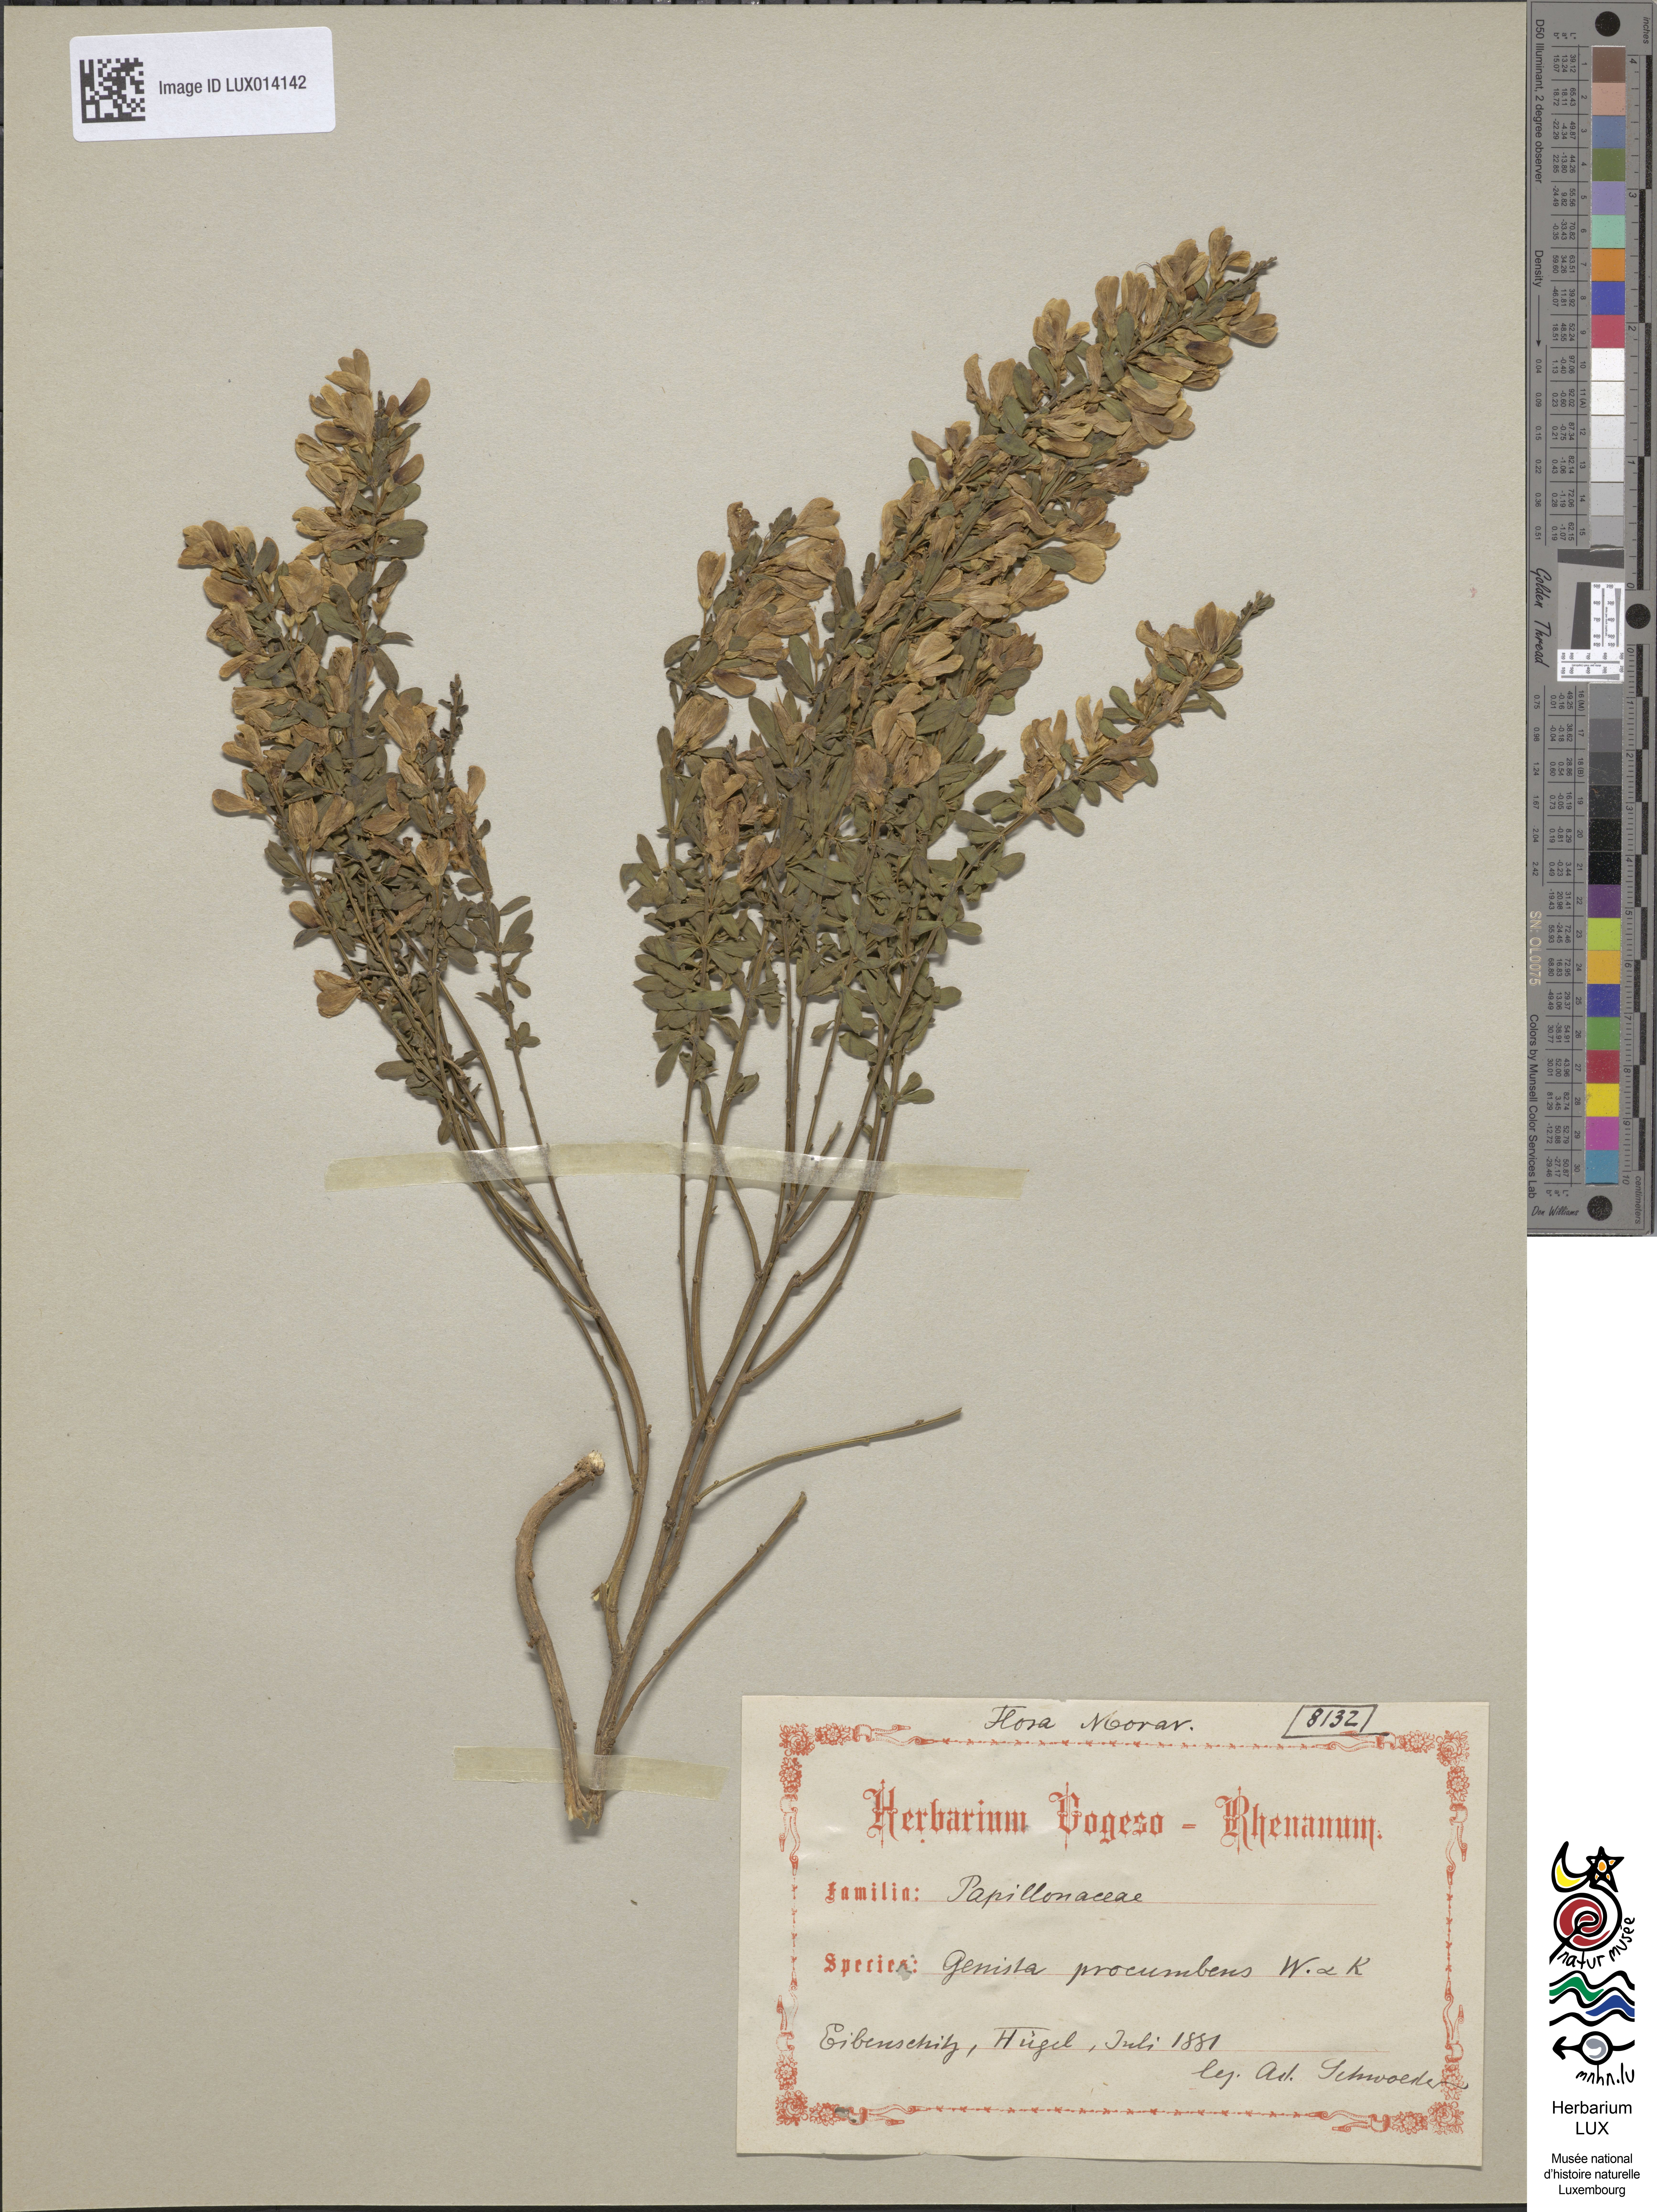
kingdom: Plantae
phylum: Tracheophyta
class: Magnoliopsida
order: Fabales
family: Fabaceae
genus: Cytisus
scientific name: Cytisus procumbens
